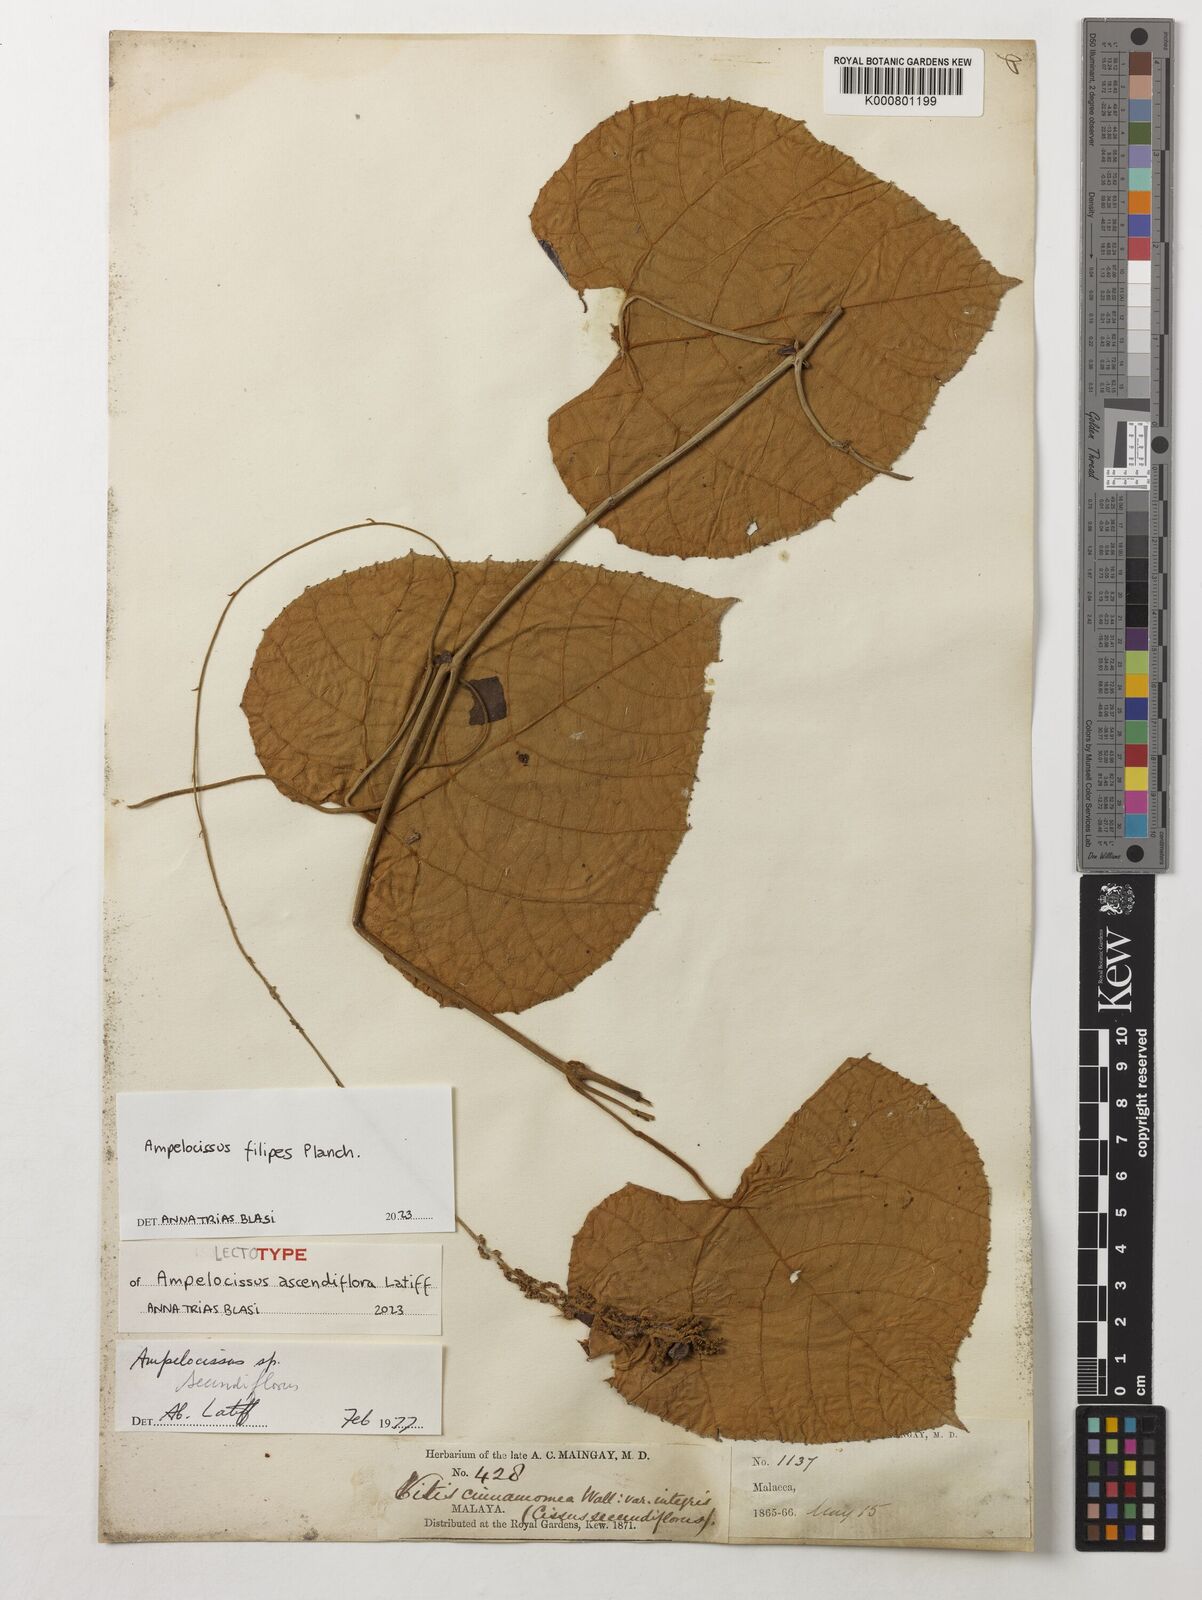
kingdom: Plantae
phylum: Tracheophyta
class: Magnoliopsida
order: Vitales
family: Vitaceae
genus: Ampelocissus
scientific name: Ampelocissus filipes
